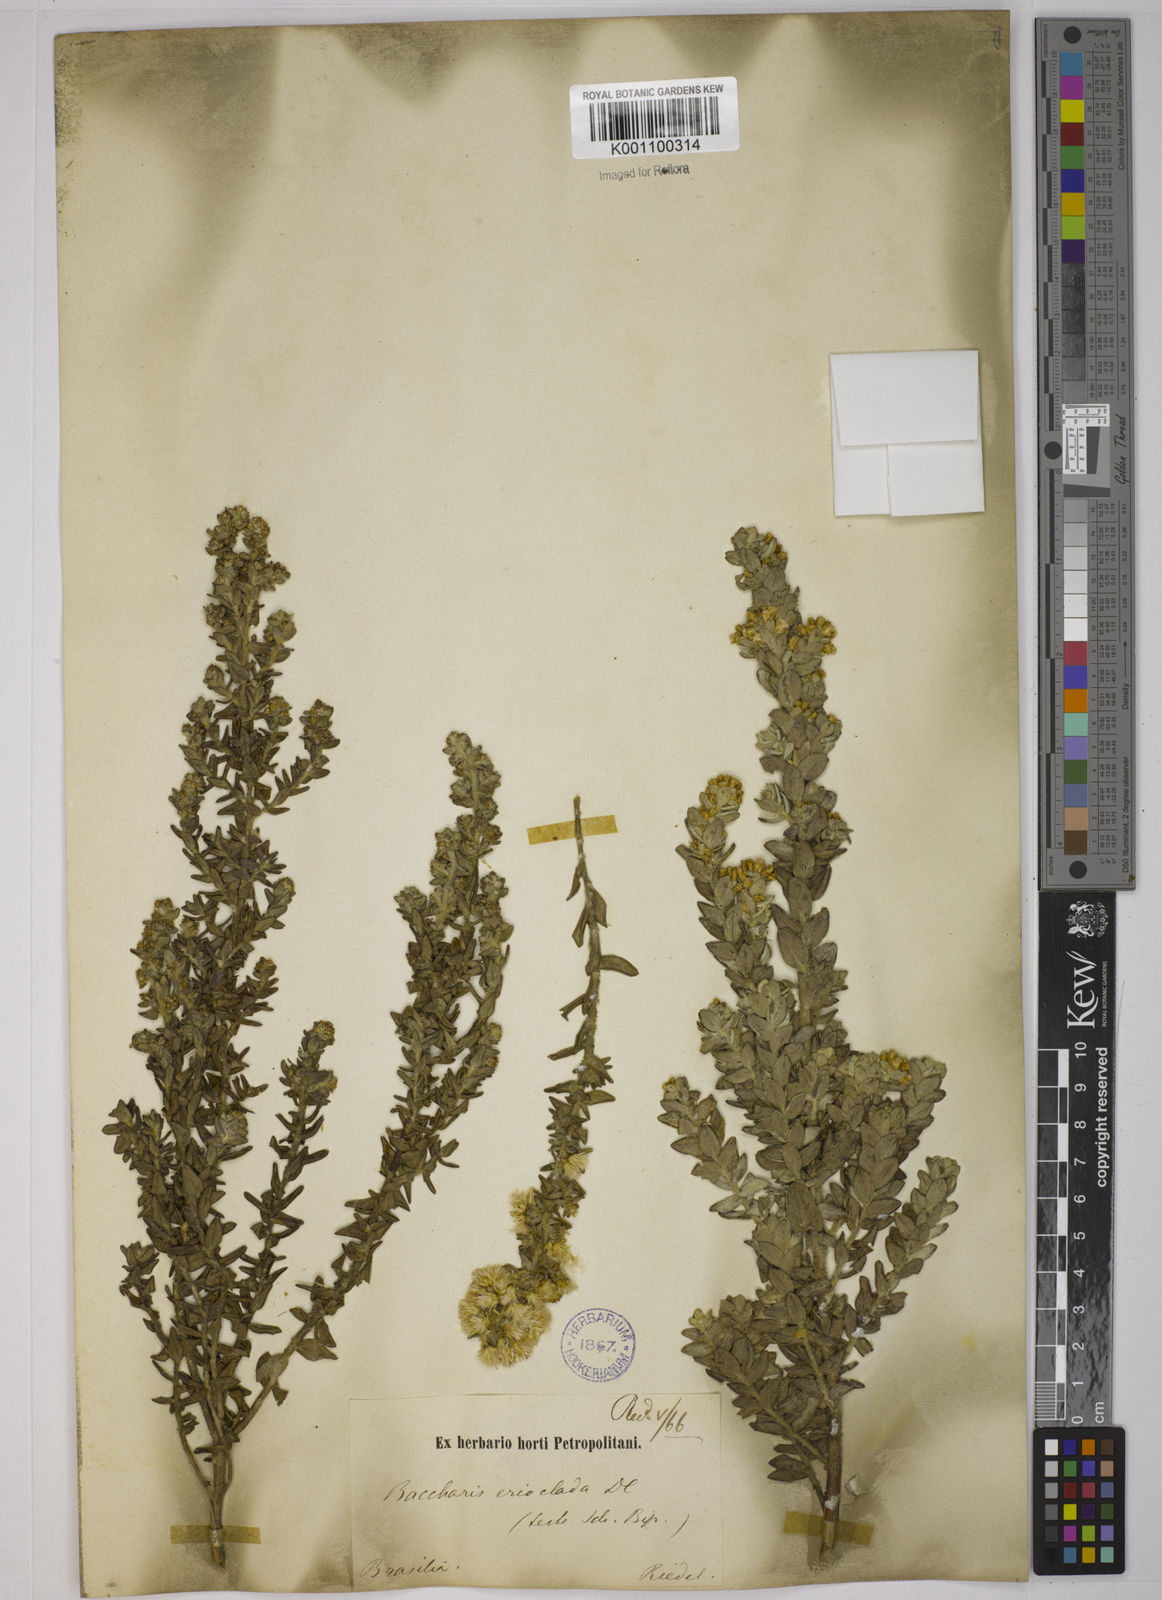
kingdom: Plantae
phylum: Tracheophyta
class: Magnoliopsida
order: Asterales
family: Asteraceae
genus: Baccharis
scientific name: Baccharis erioclada
